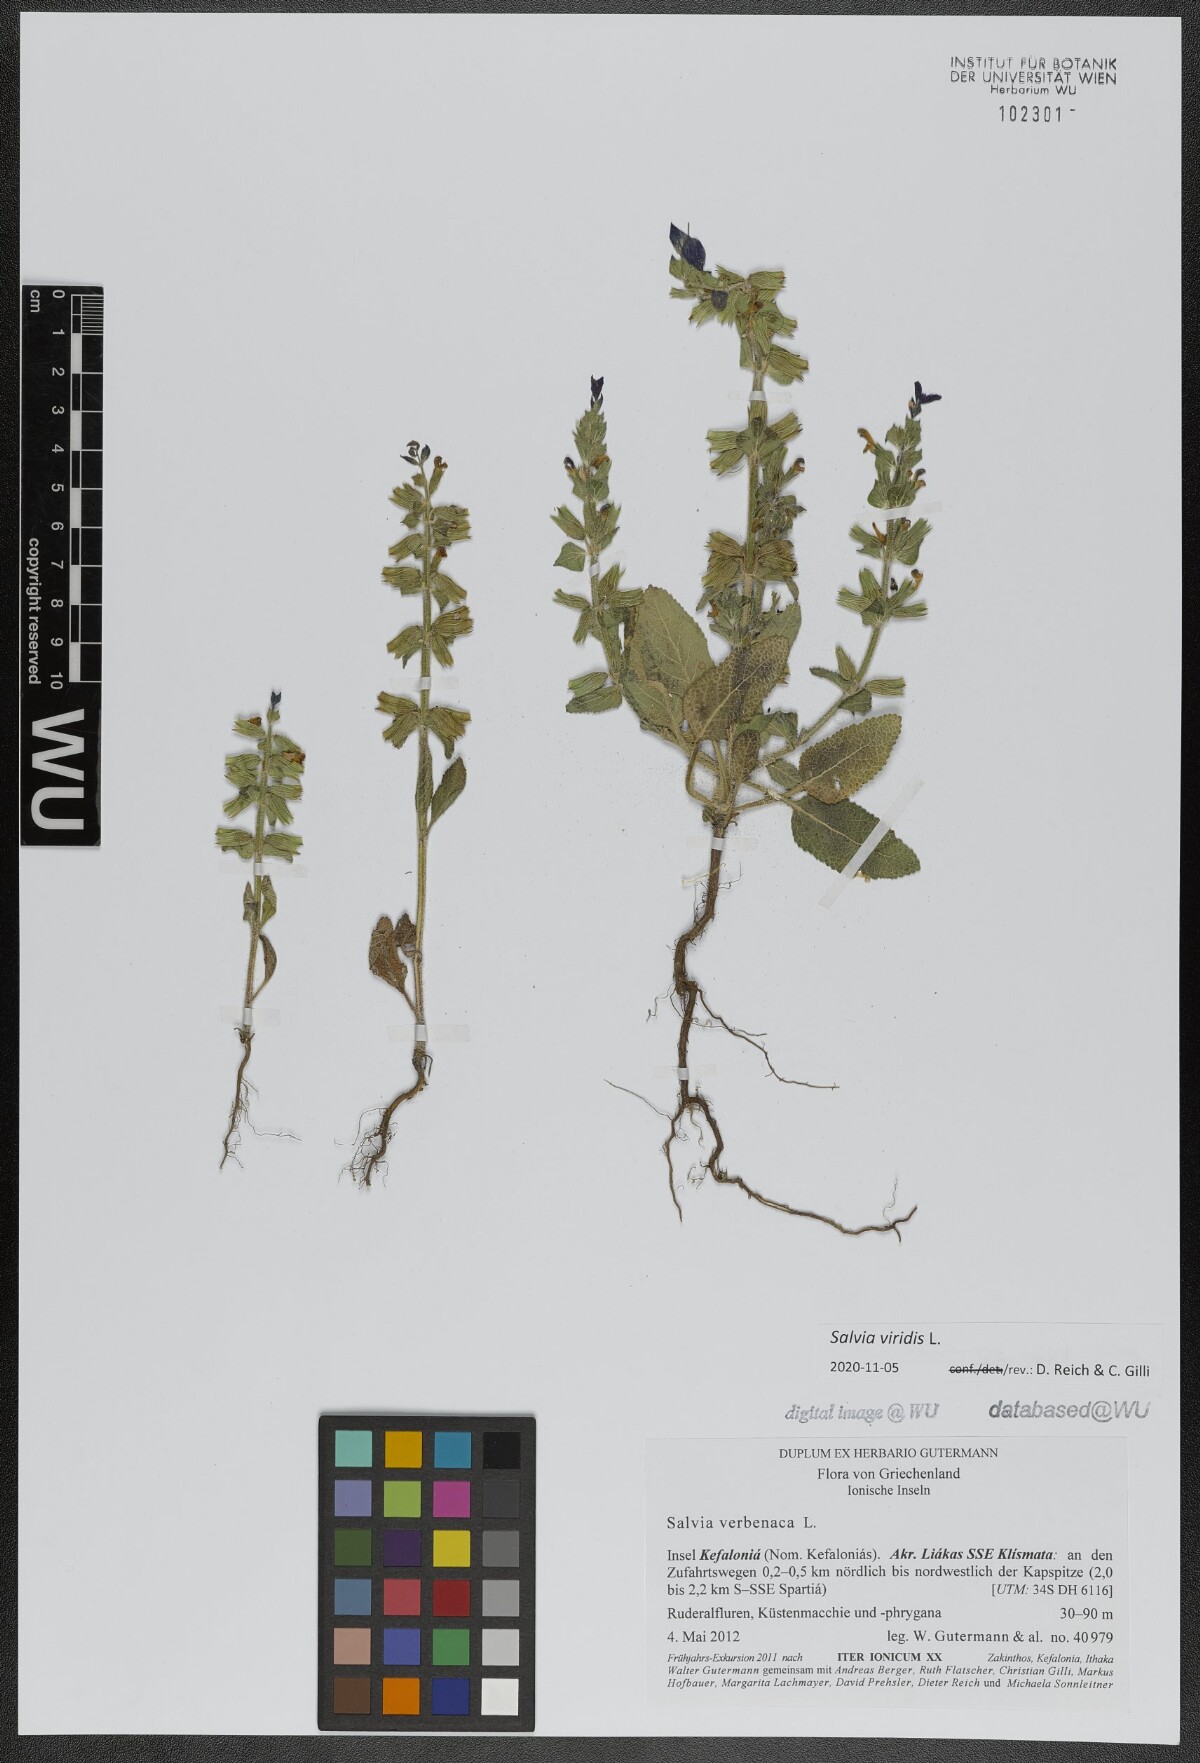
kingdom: Plantae
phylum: Tracheophyta
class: Magnoliopsida
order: Lamiales
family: Lamiaceae
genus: Salvia
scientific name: Salvia viridis
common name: Annual clary
